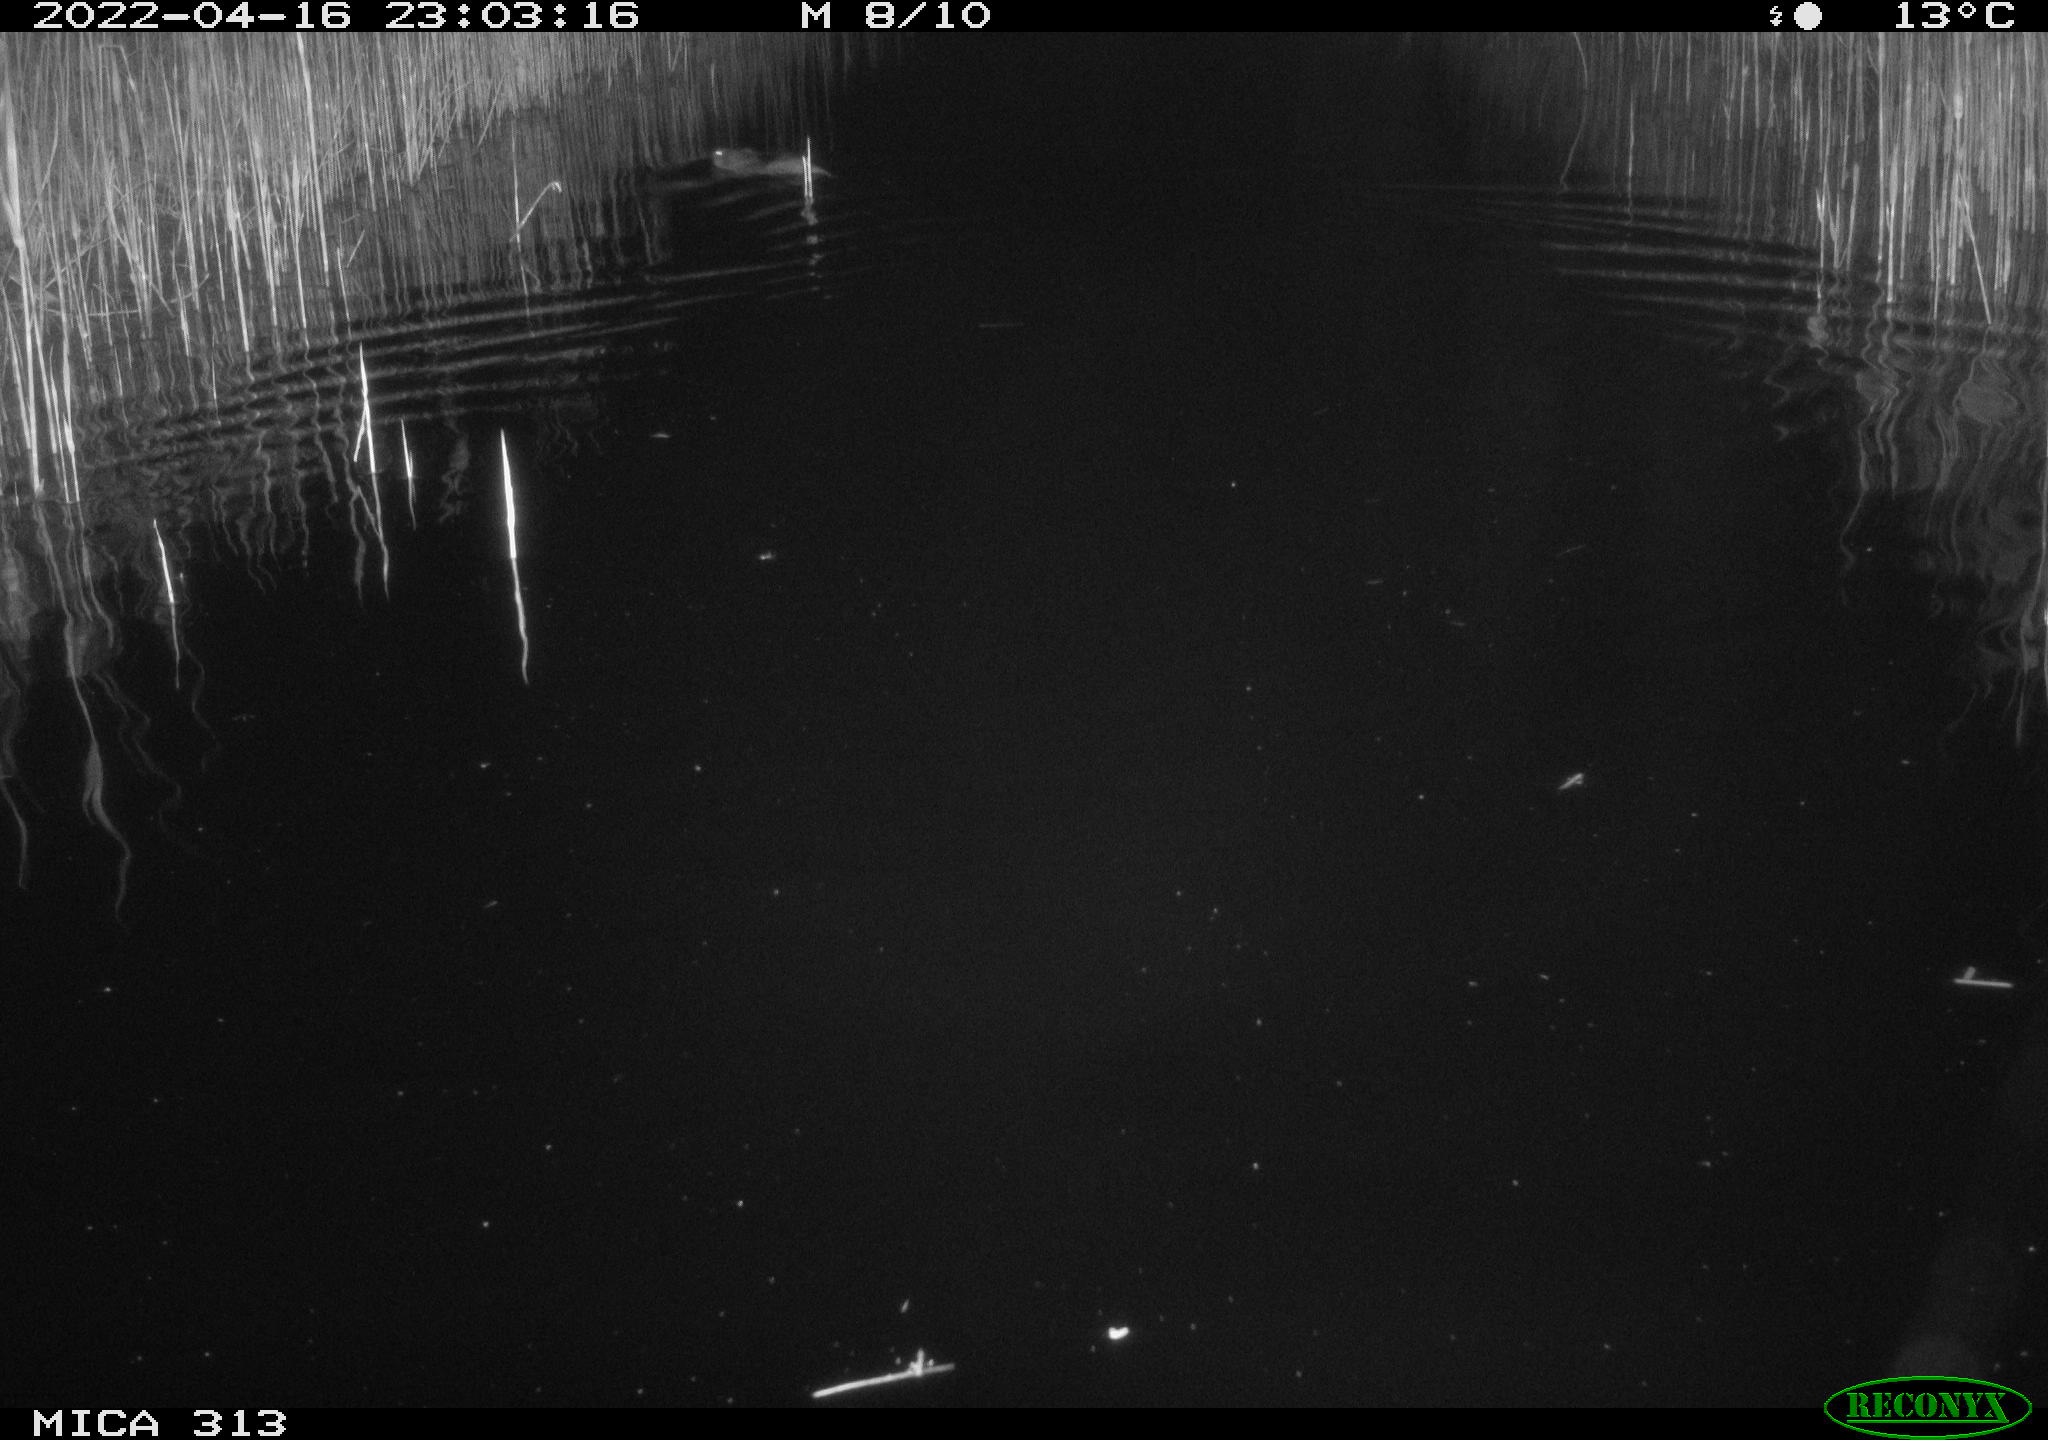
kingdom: Animalia
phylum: Chordata
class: Mammalia
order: Rodentia
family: Cricetidae
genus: Ondatra
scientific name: Ondatra zibethicus
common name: Muskrat
